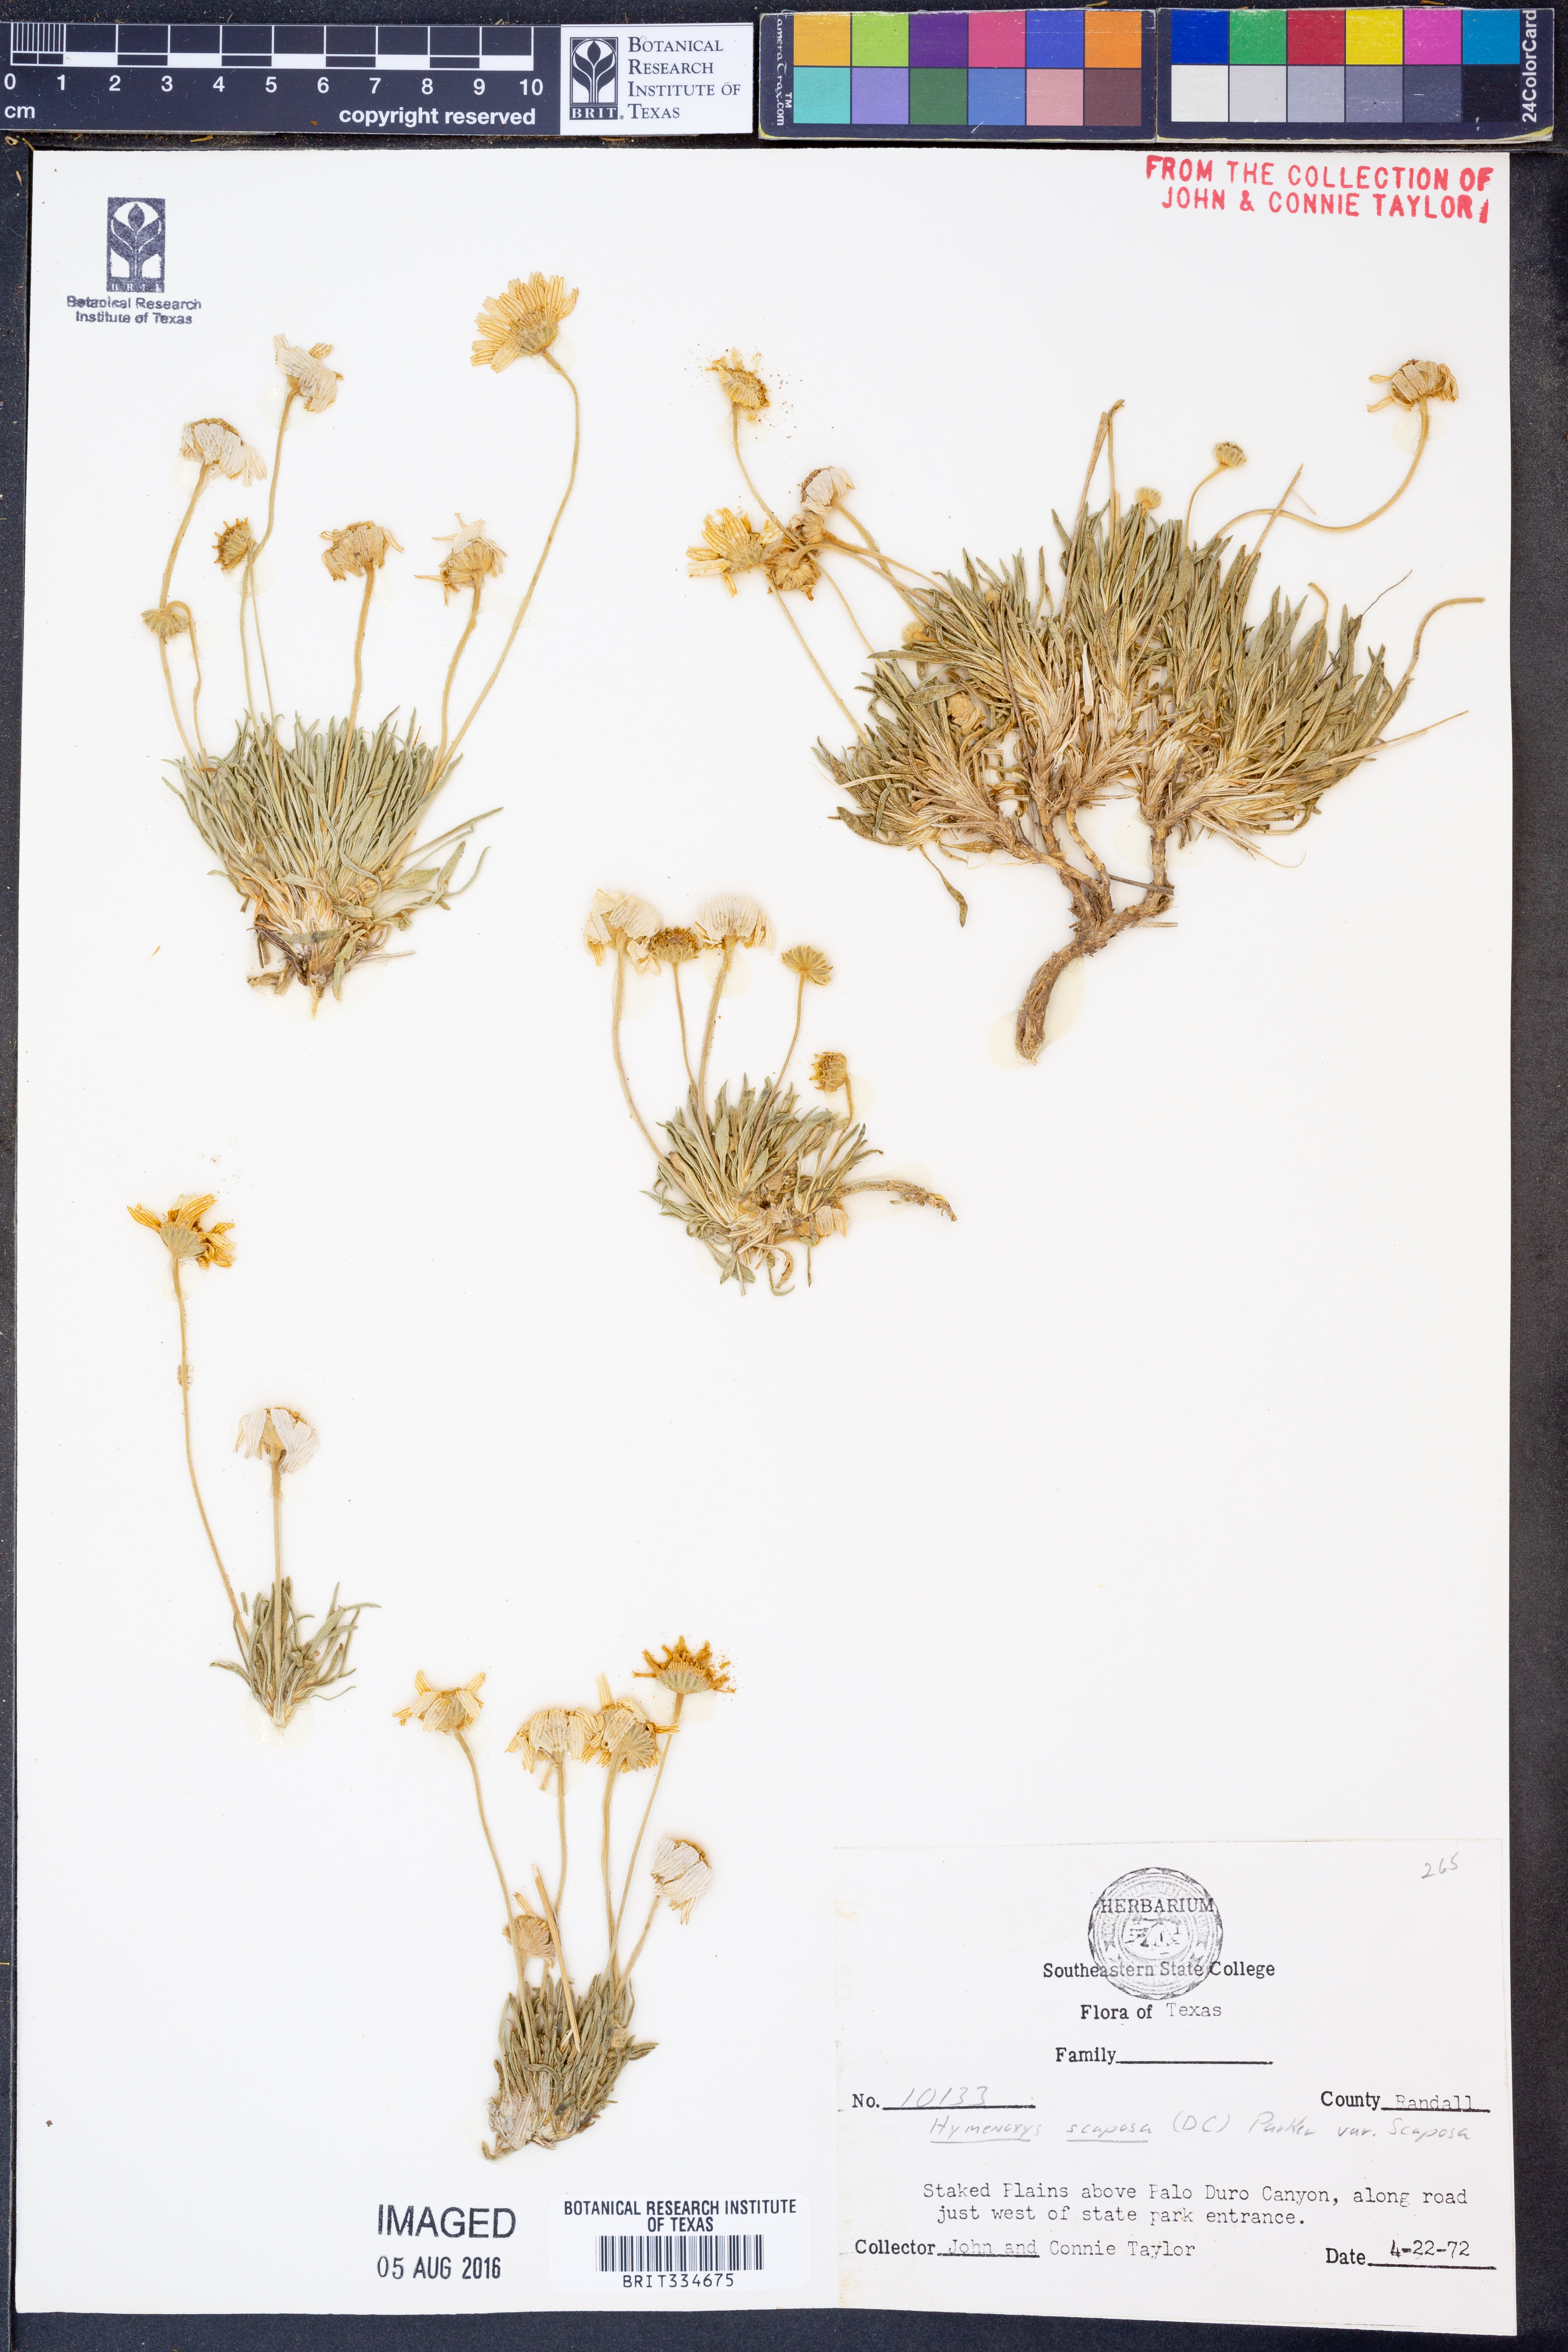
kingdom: Plantae
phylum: Tracheophyta
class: Magnoliopsida
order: Asterales
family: Asteraceae
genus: Tetraneuris
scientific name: Tetraneuris scaposa
